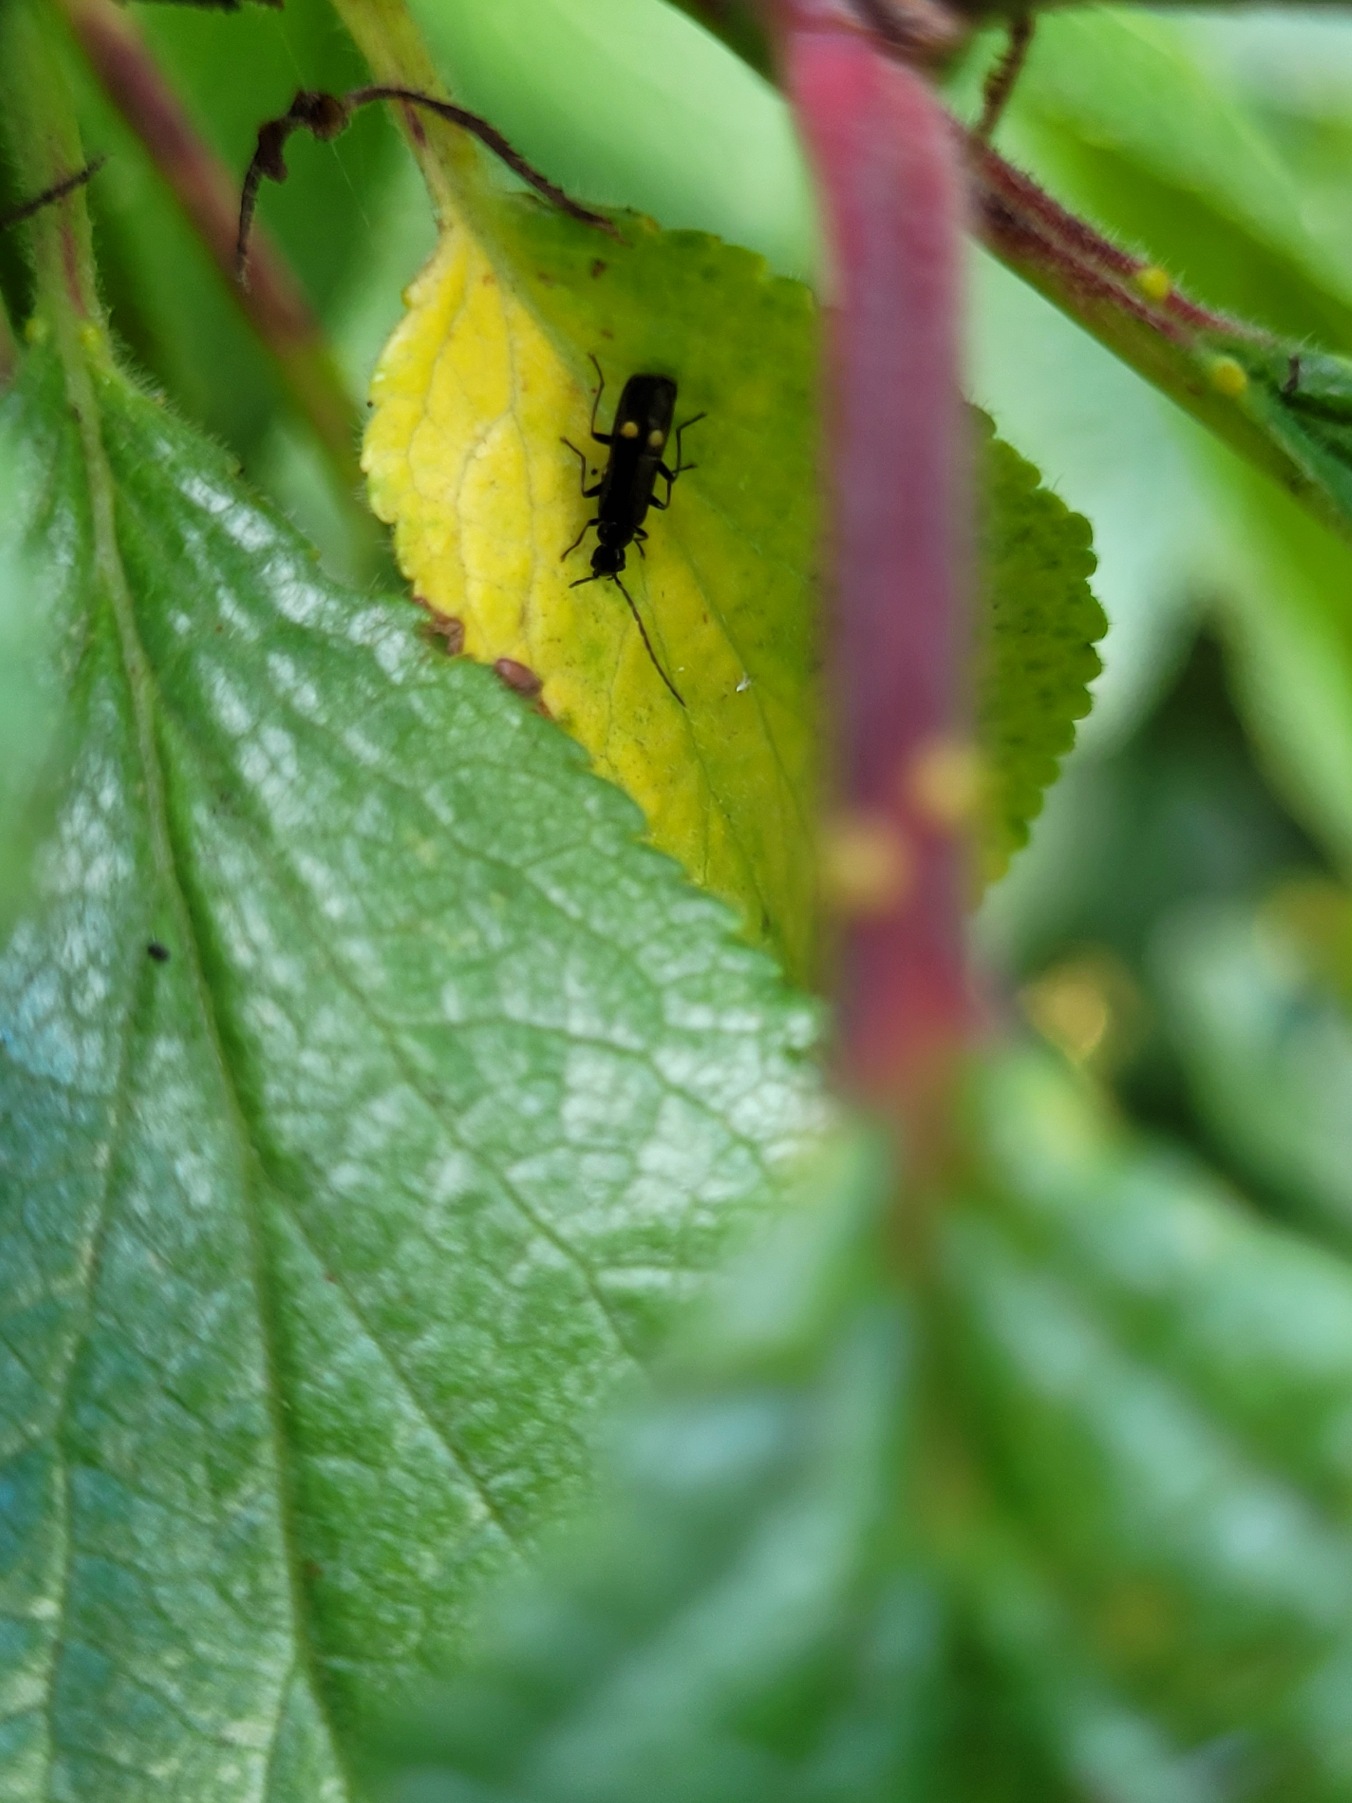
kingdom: Animalia
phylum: Arthropoda
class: Insecta
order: Coleoptera
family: Cantharidae
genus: Malthodes
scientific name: Malthodes
